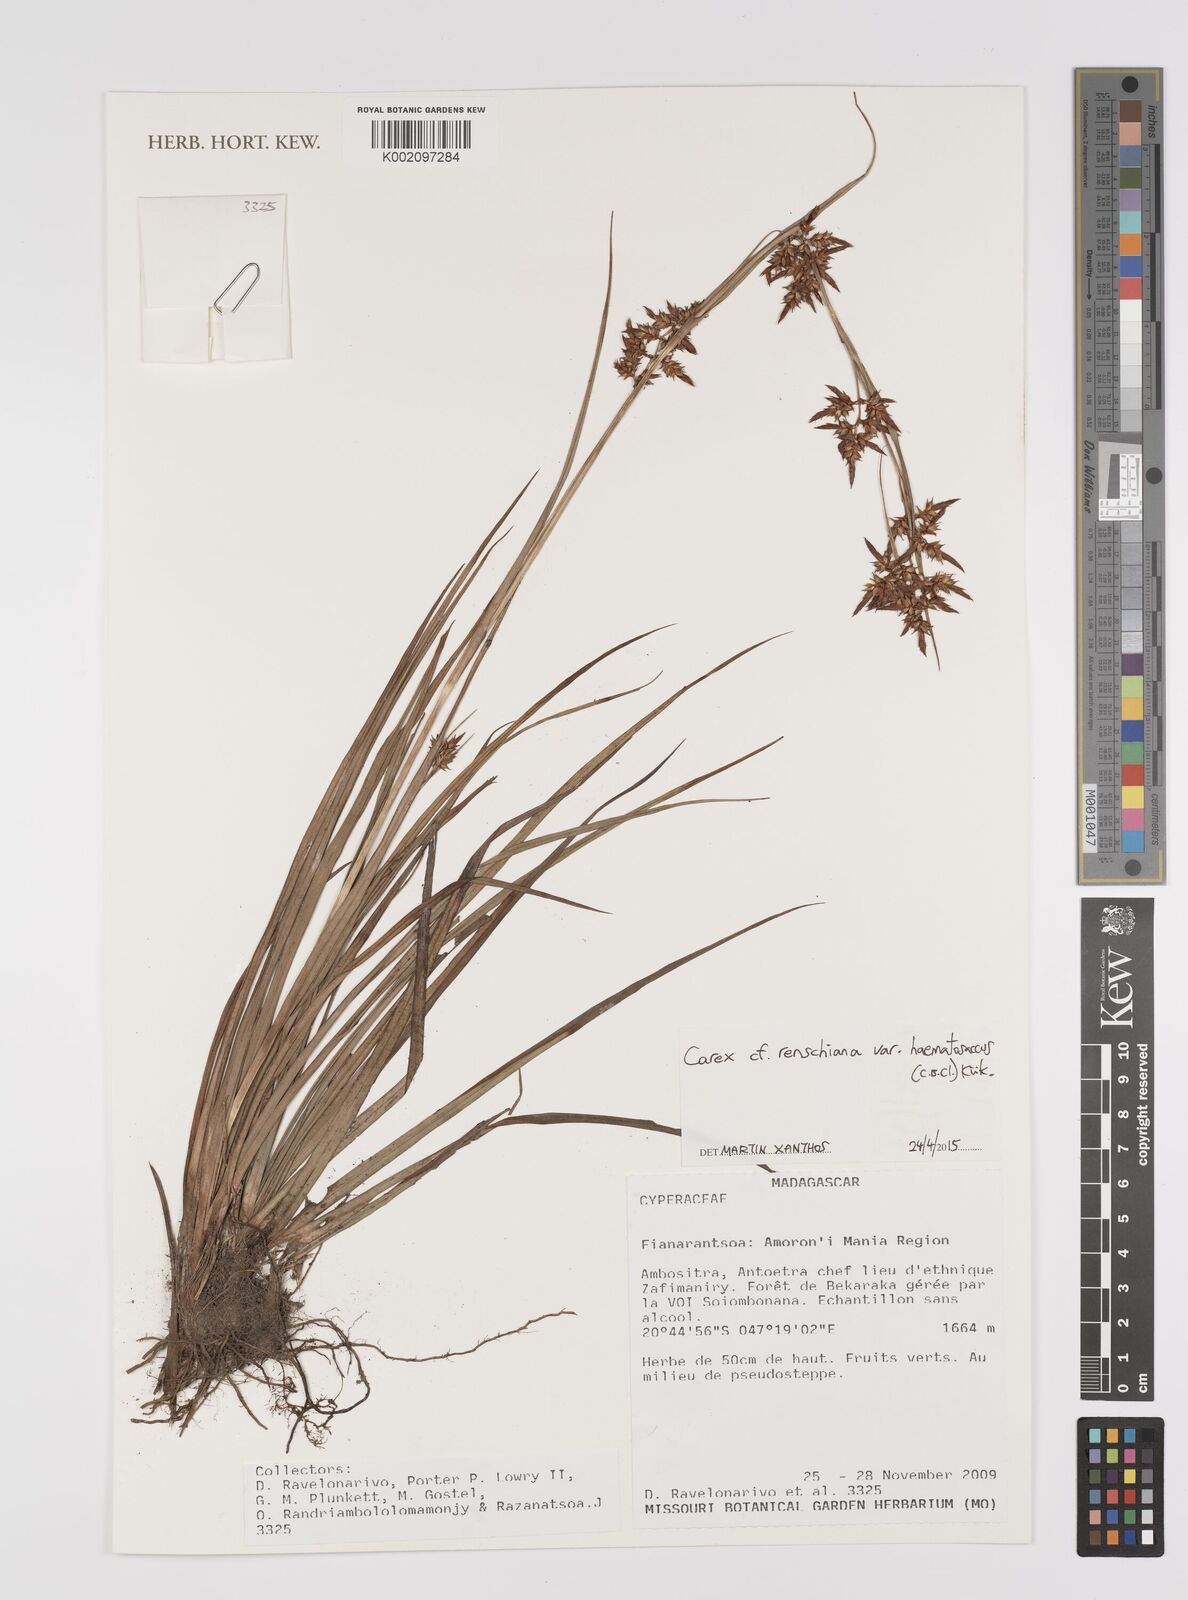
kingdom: Plantae
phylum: Tracheophyta
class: Liliopsida
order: Poales
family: Cyperaceae
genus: Carex
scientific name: Carex renschiana
